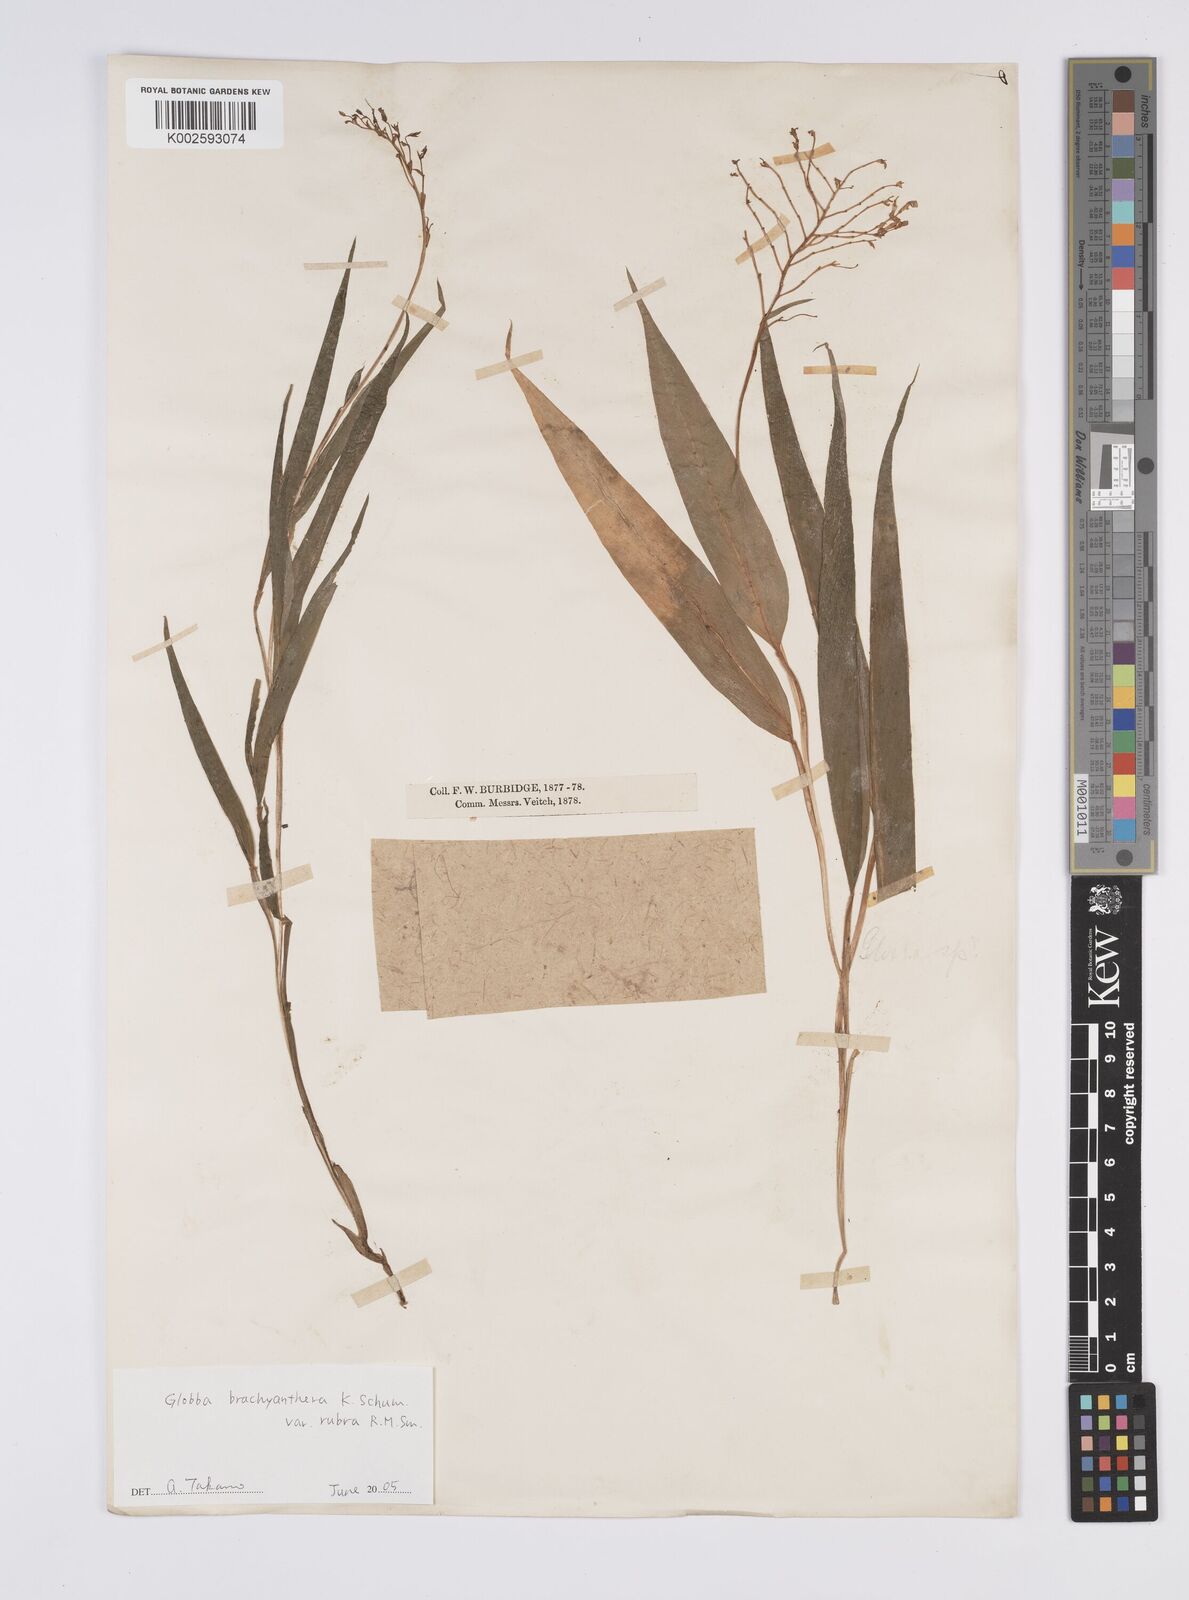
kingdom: Plantae
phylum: Tracheophyta
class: Liliopsida
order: Zingiberales
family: Zingiberaceae
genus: Globba
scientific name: Globba brachyanthera
